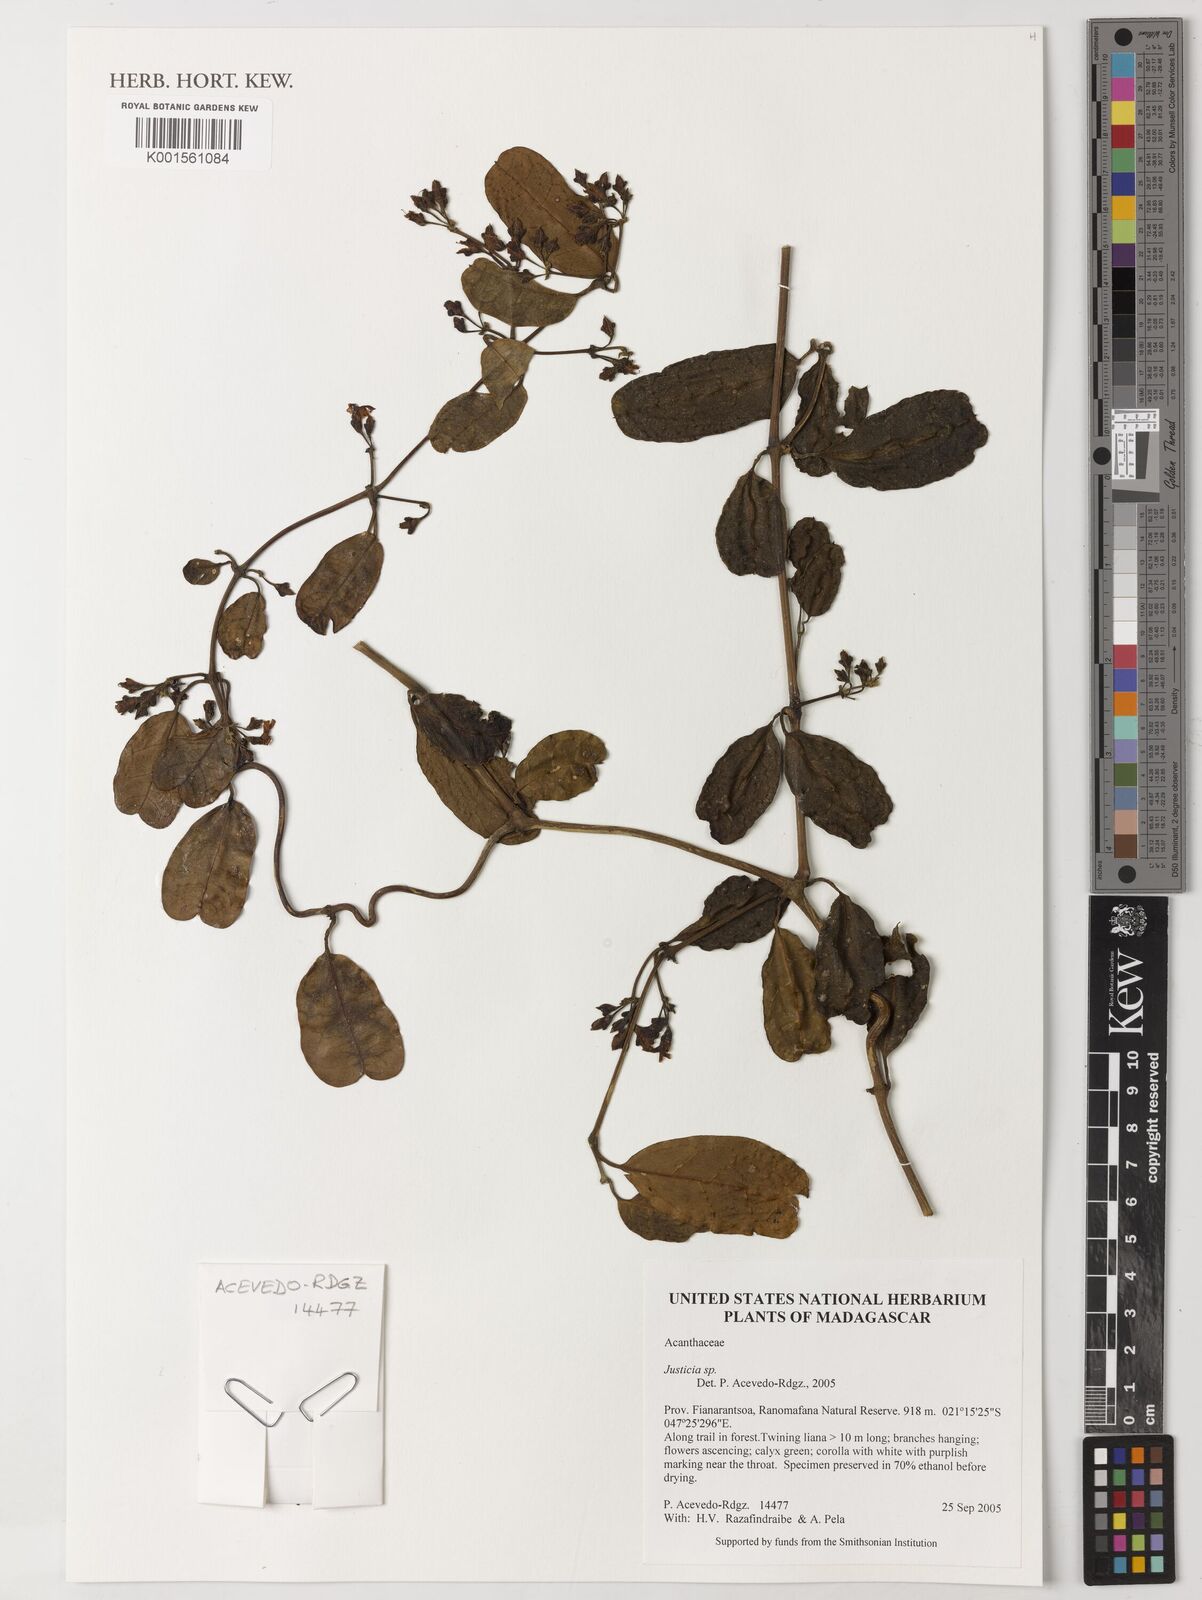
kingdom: Plantae
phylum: Tracheophyta
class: Magnoliopsida
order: Lamiales
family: Acanthaceae
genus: Mendoncia
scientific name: Mendoncia
